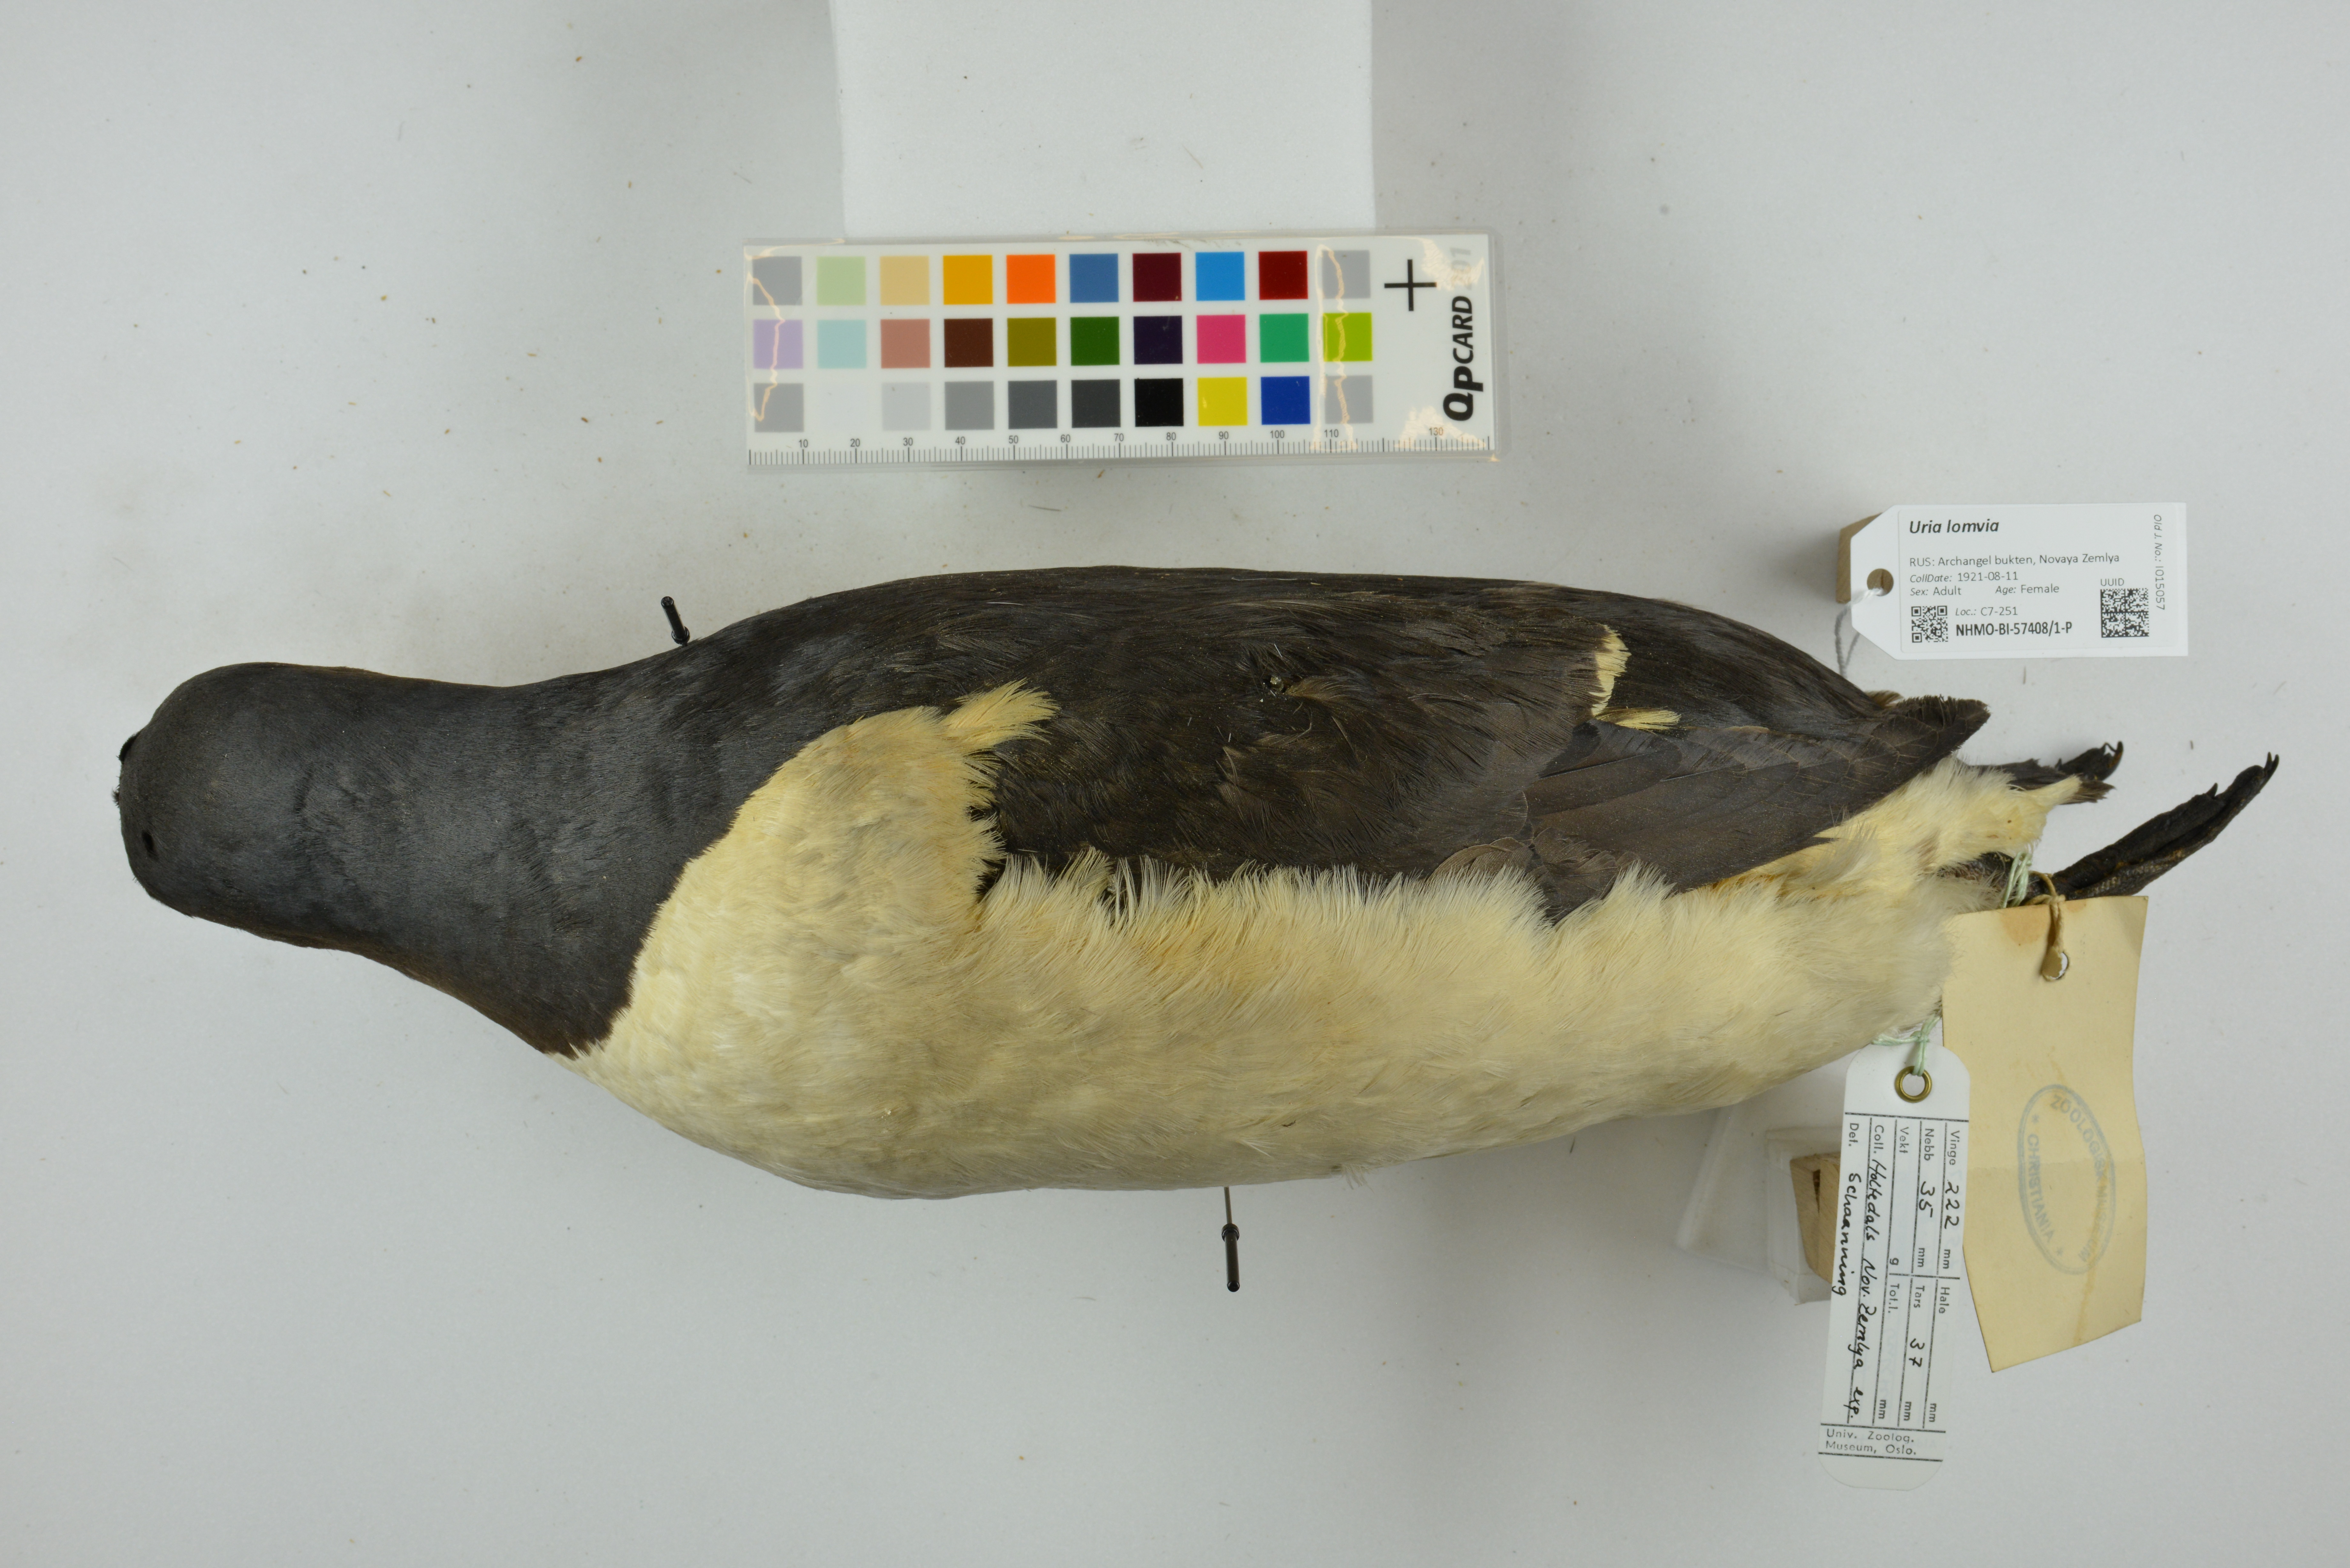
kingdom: Animalia
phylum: Chordata
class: Aves
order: Charadriiformes
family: Alcidae
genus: Uria
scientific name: Uria lomvia
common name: Thick-billed murre
